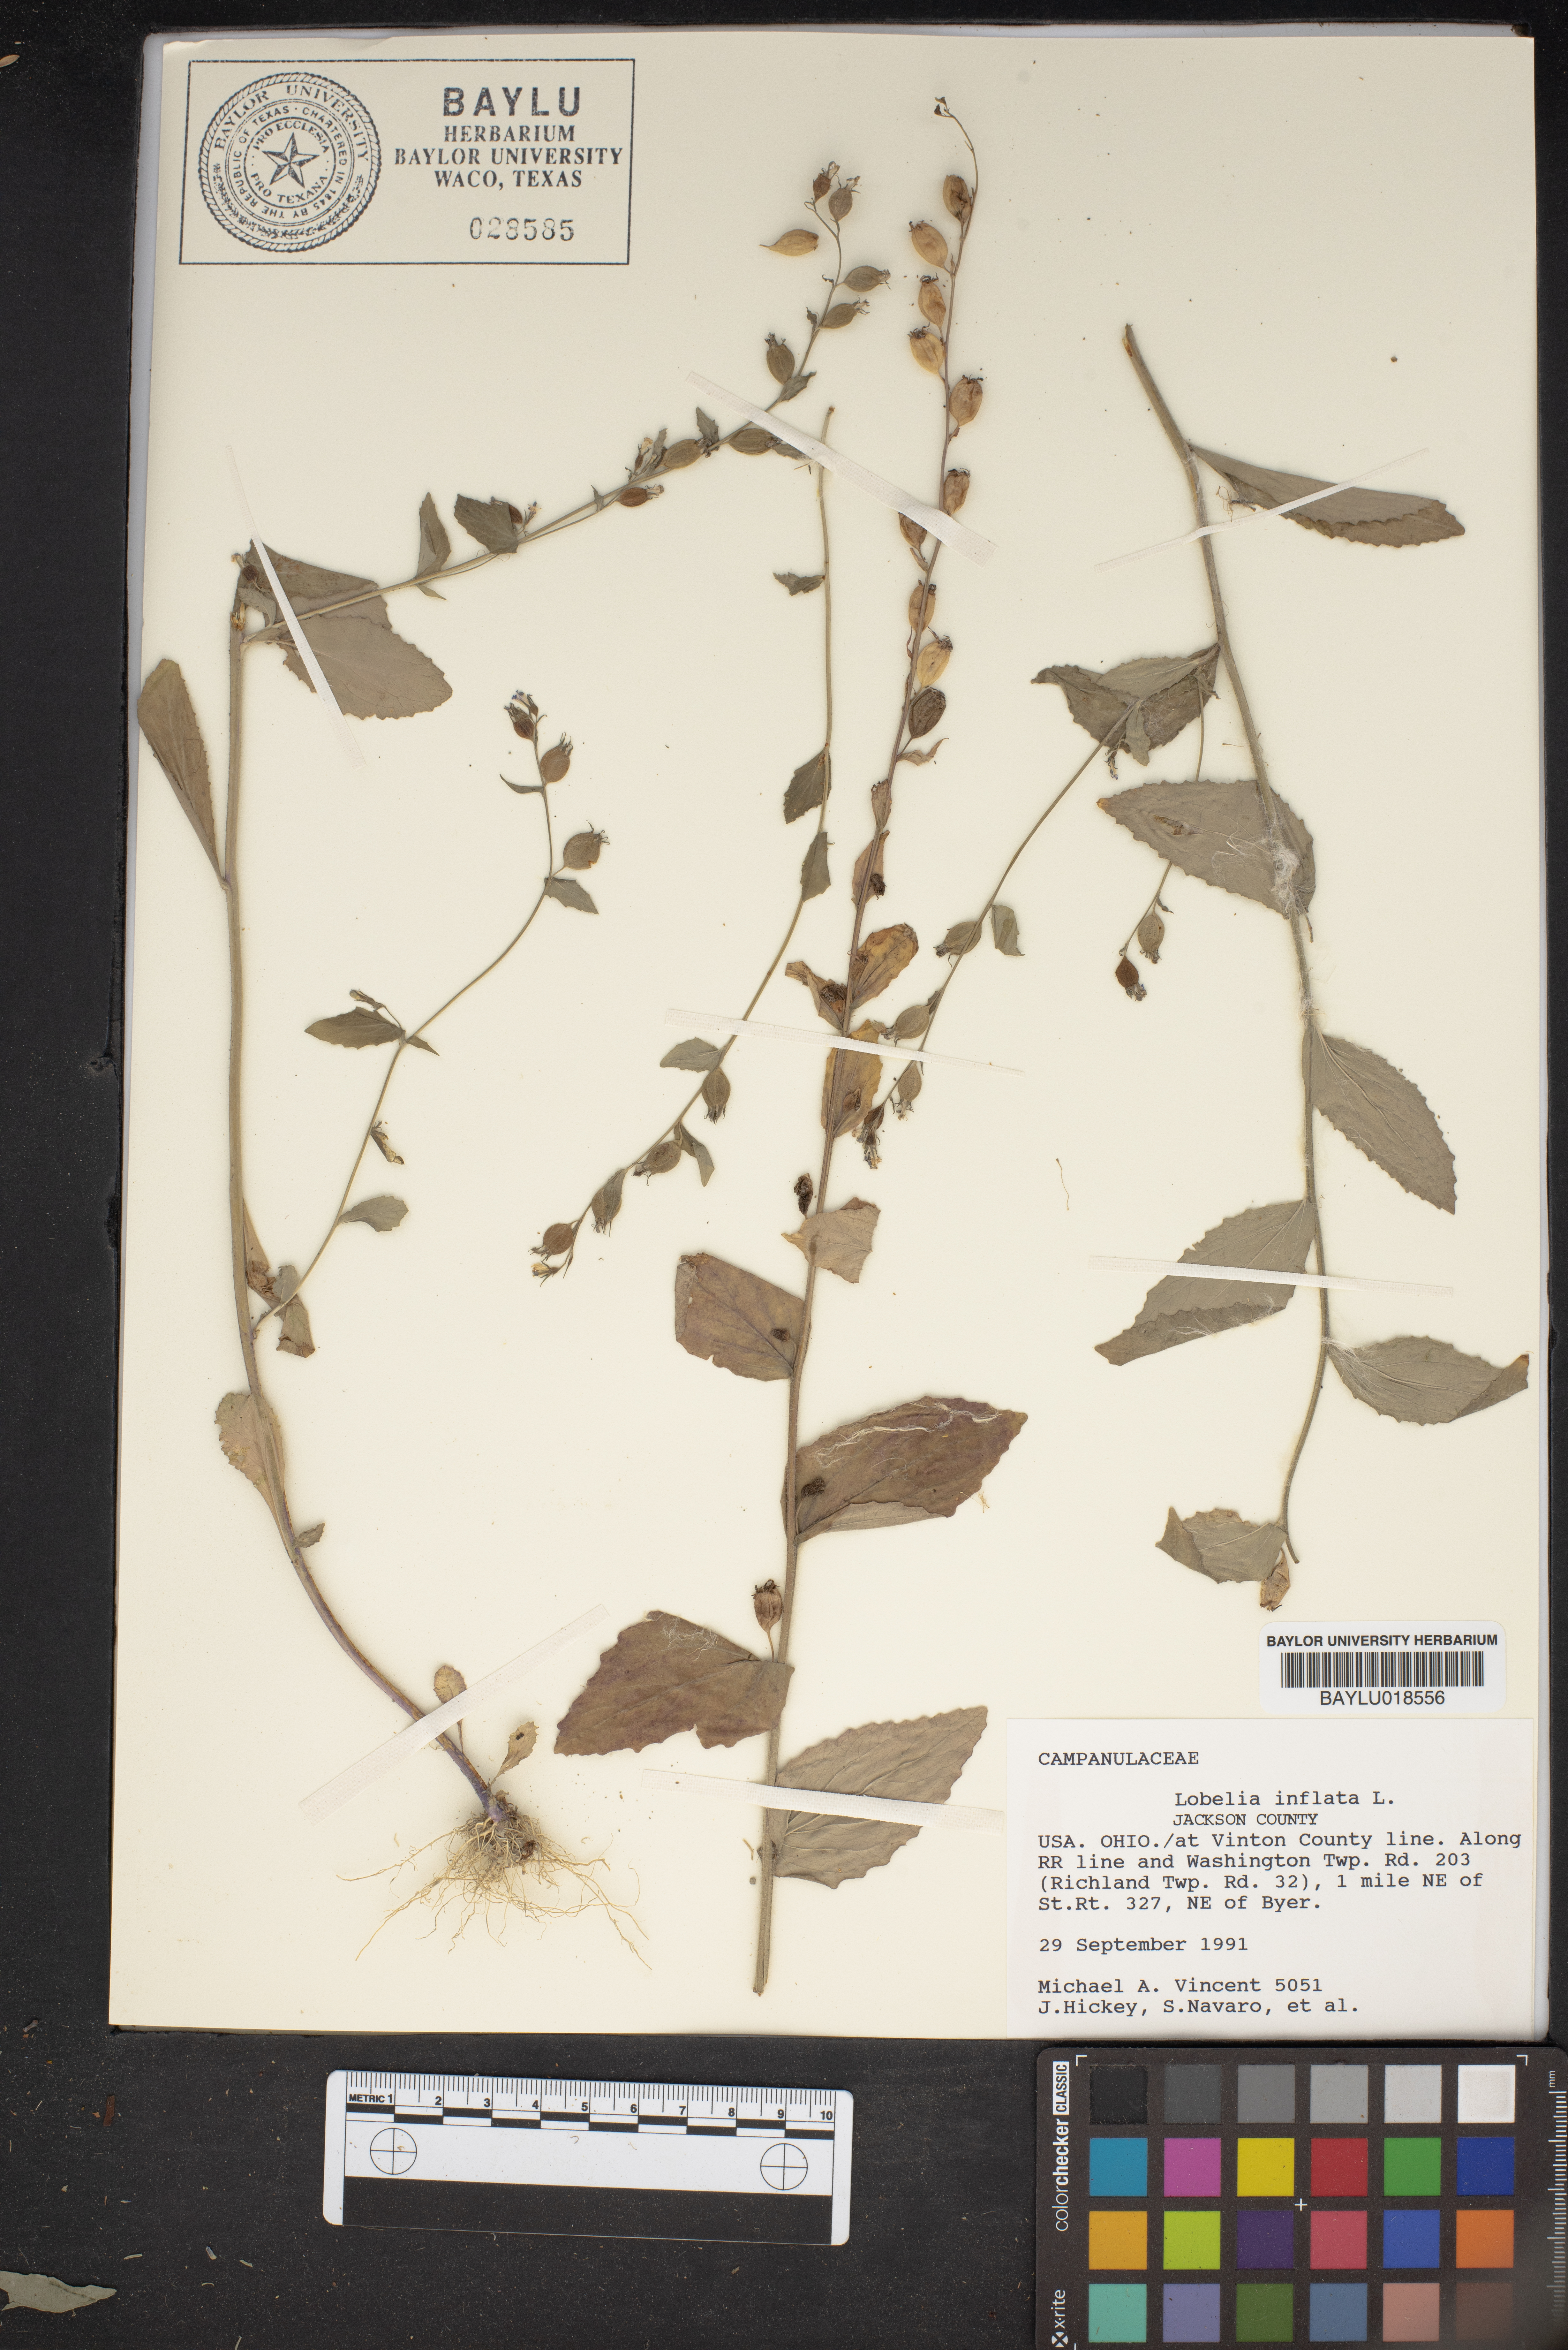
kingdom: Plantae
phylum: Tracheophyta
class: Magnoliopsida
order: Asterales
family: Campanulaceae
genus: Lobelia
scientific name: Lobelia inflata
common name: Indian tobacco
